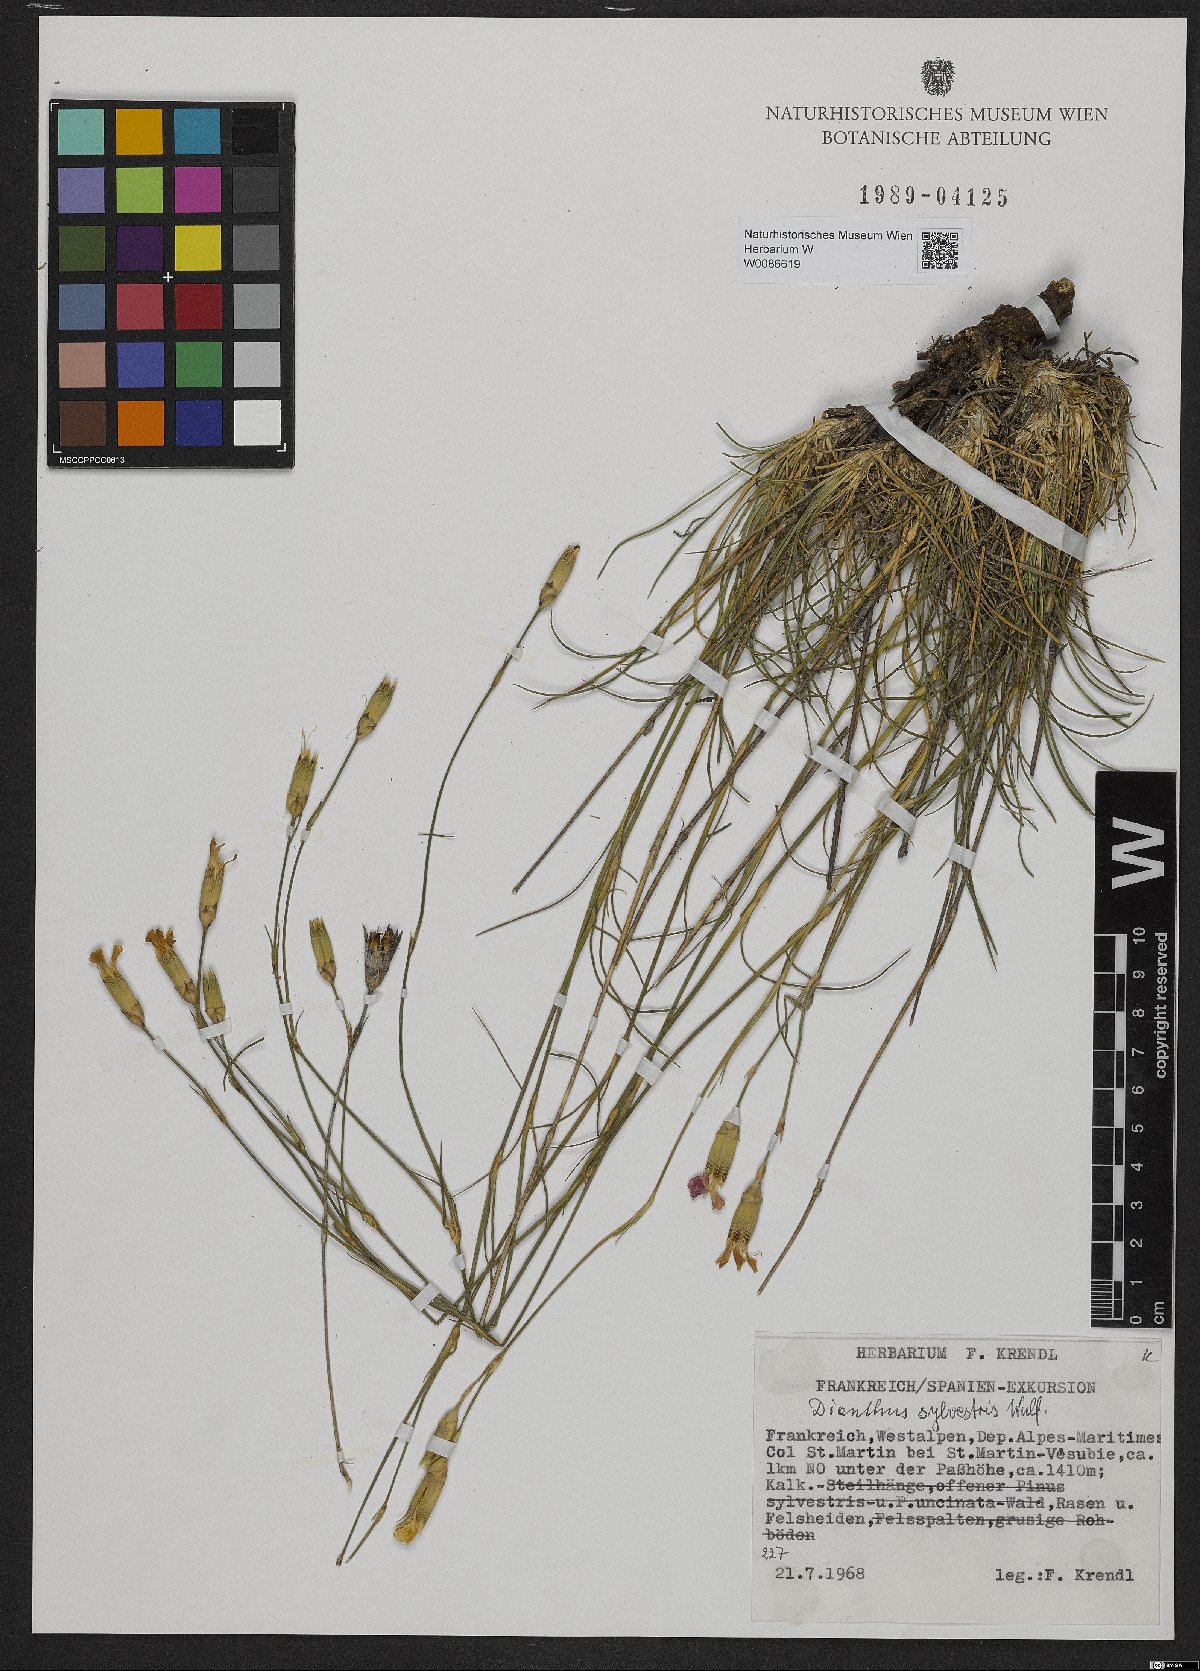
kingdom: Plantae
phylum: Tracheophyta
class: Magnoliopsida
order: Caryophyllales
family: Caryophyllaceae
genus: Dianthus
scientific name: Dianthus sylvestris
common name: Wood pink
